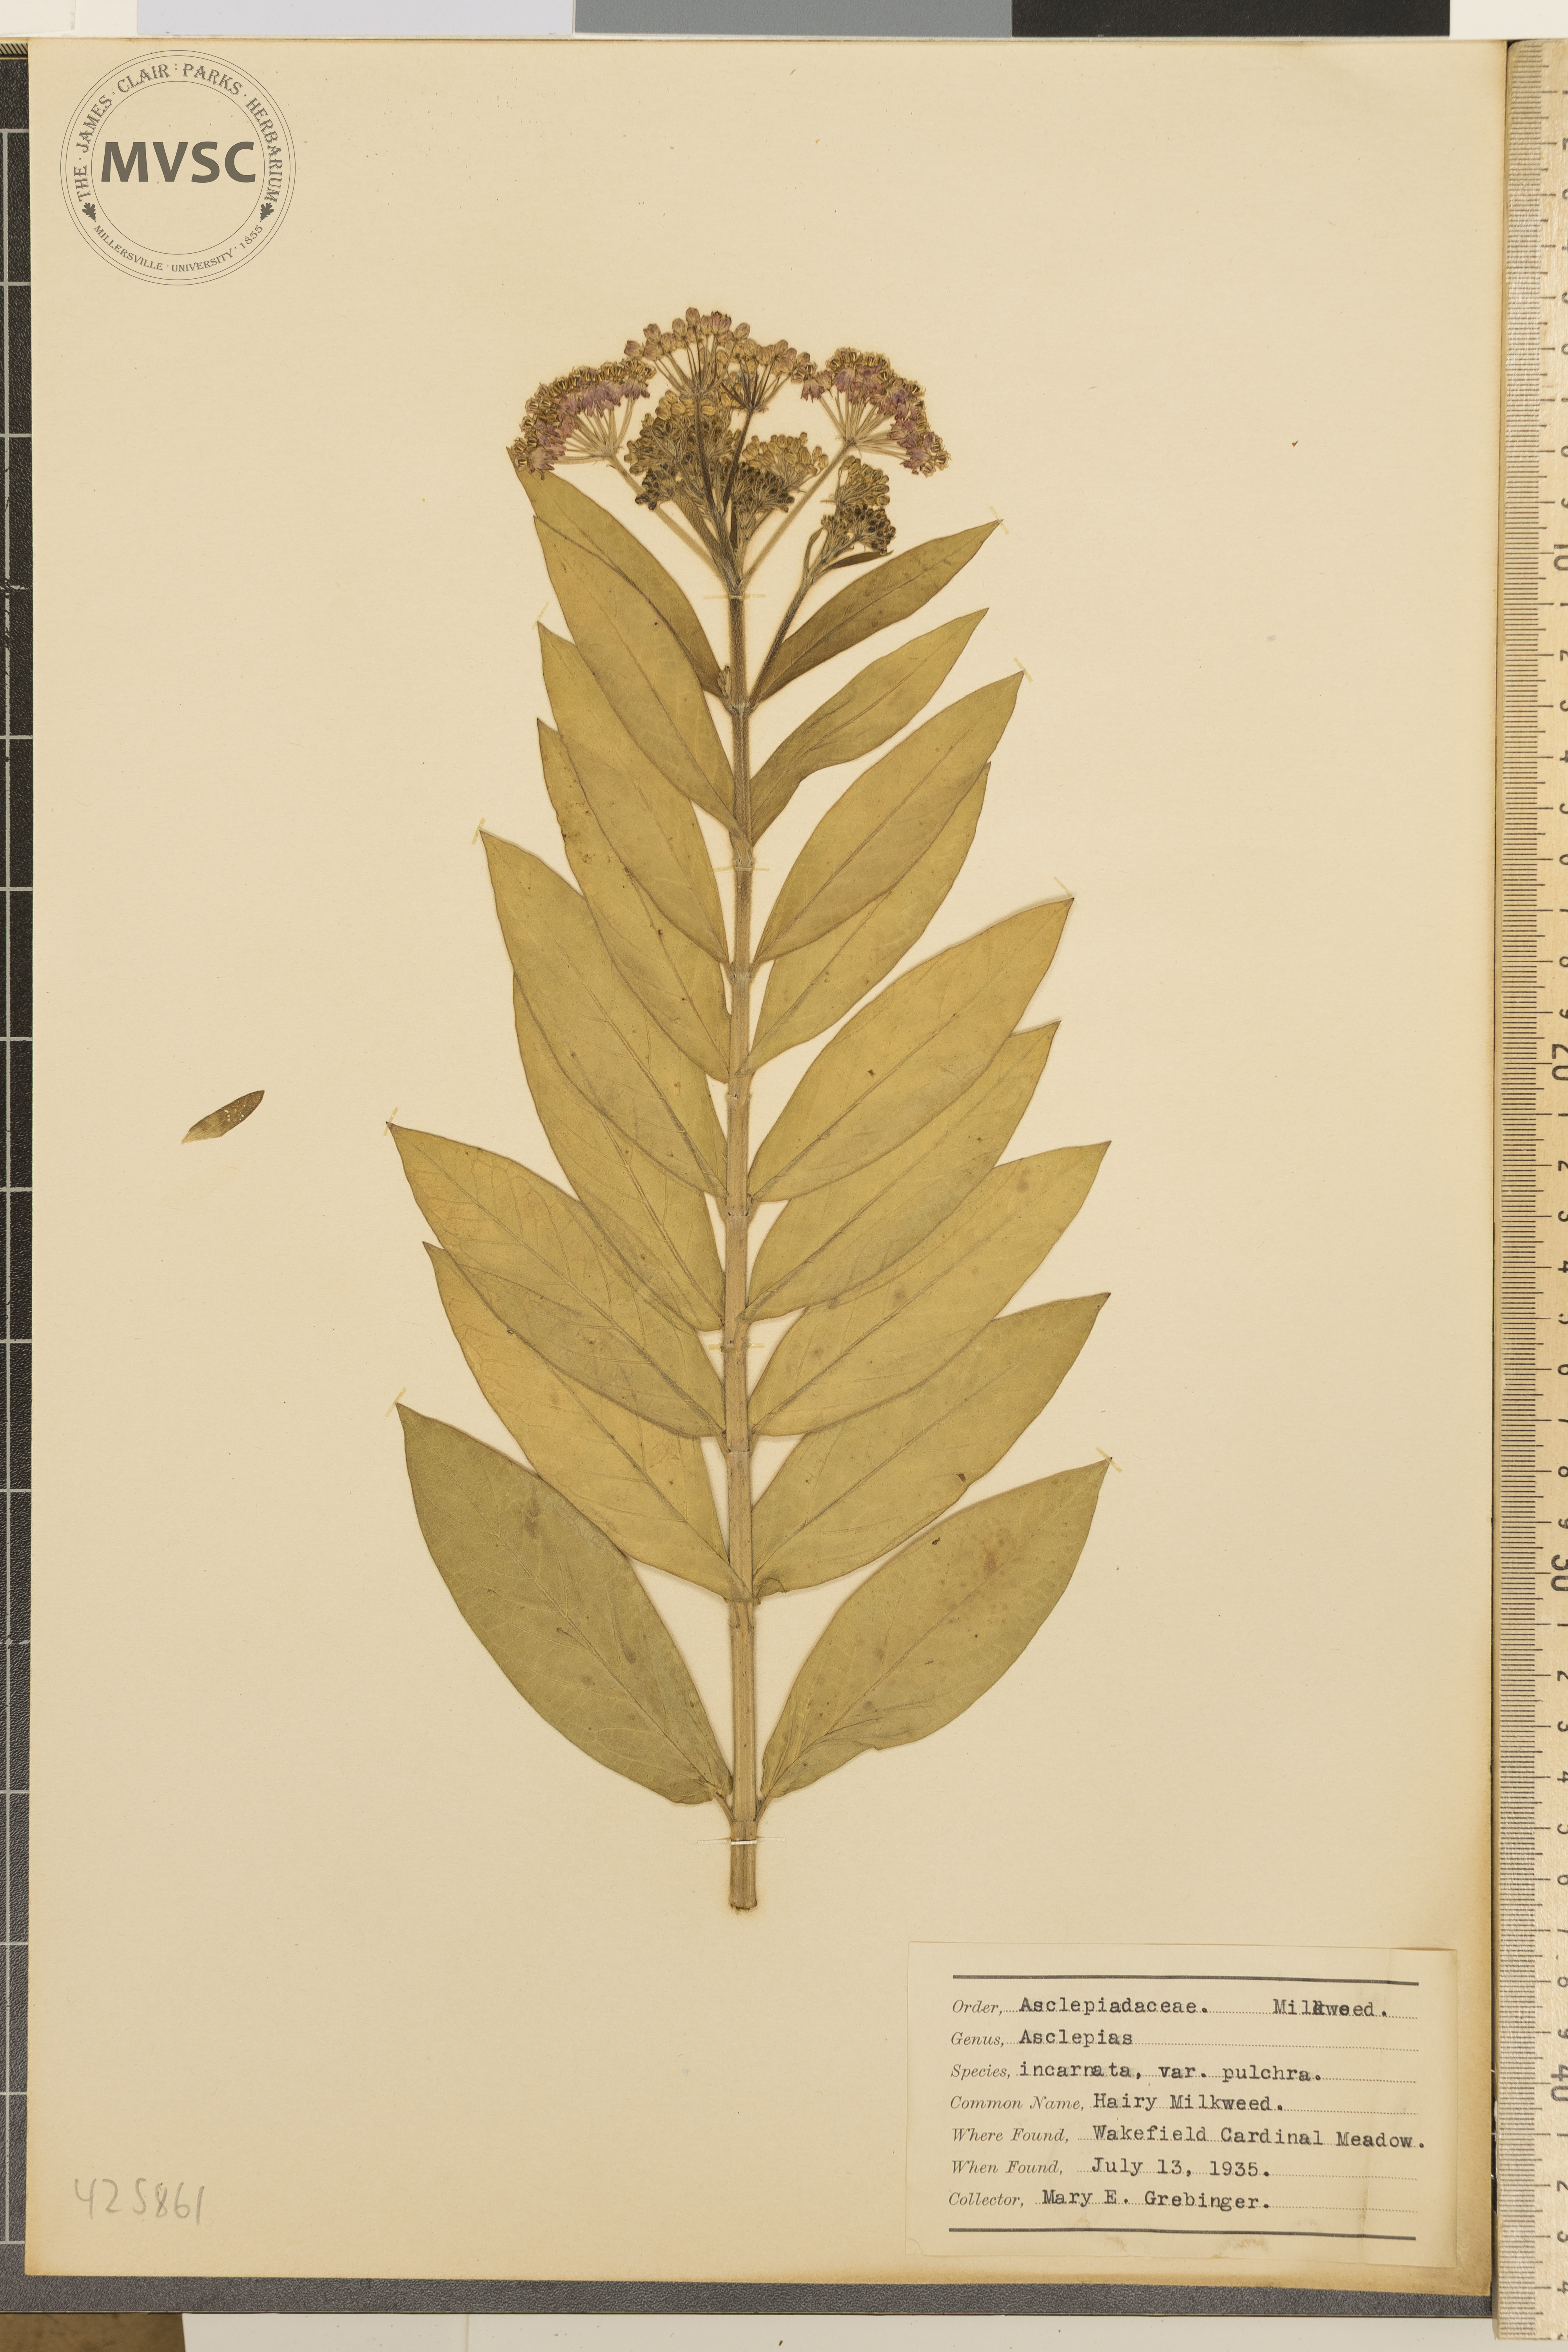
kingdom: Plantae
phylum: Tracheophyta
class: Magnoliopsida
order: Gentianales
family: Apocynaceae
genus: Asclepias
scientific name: Asclepias incarnata
